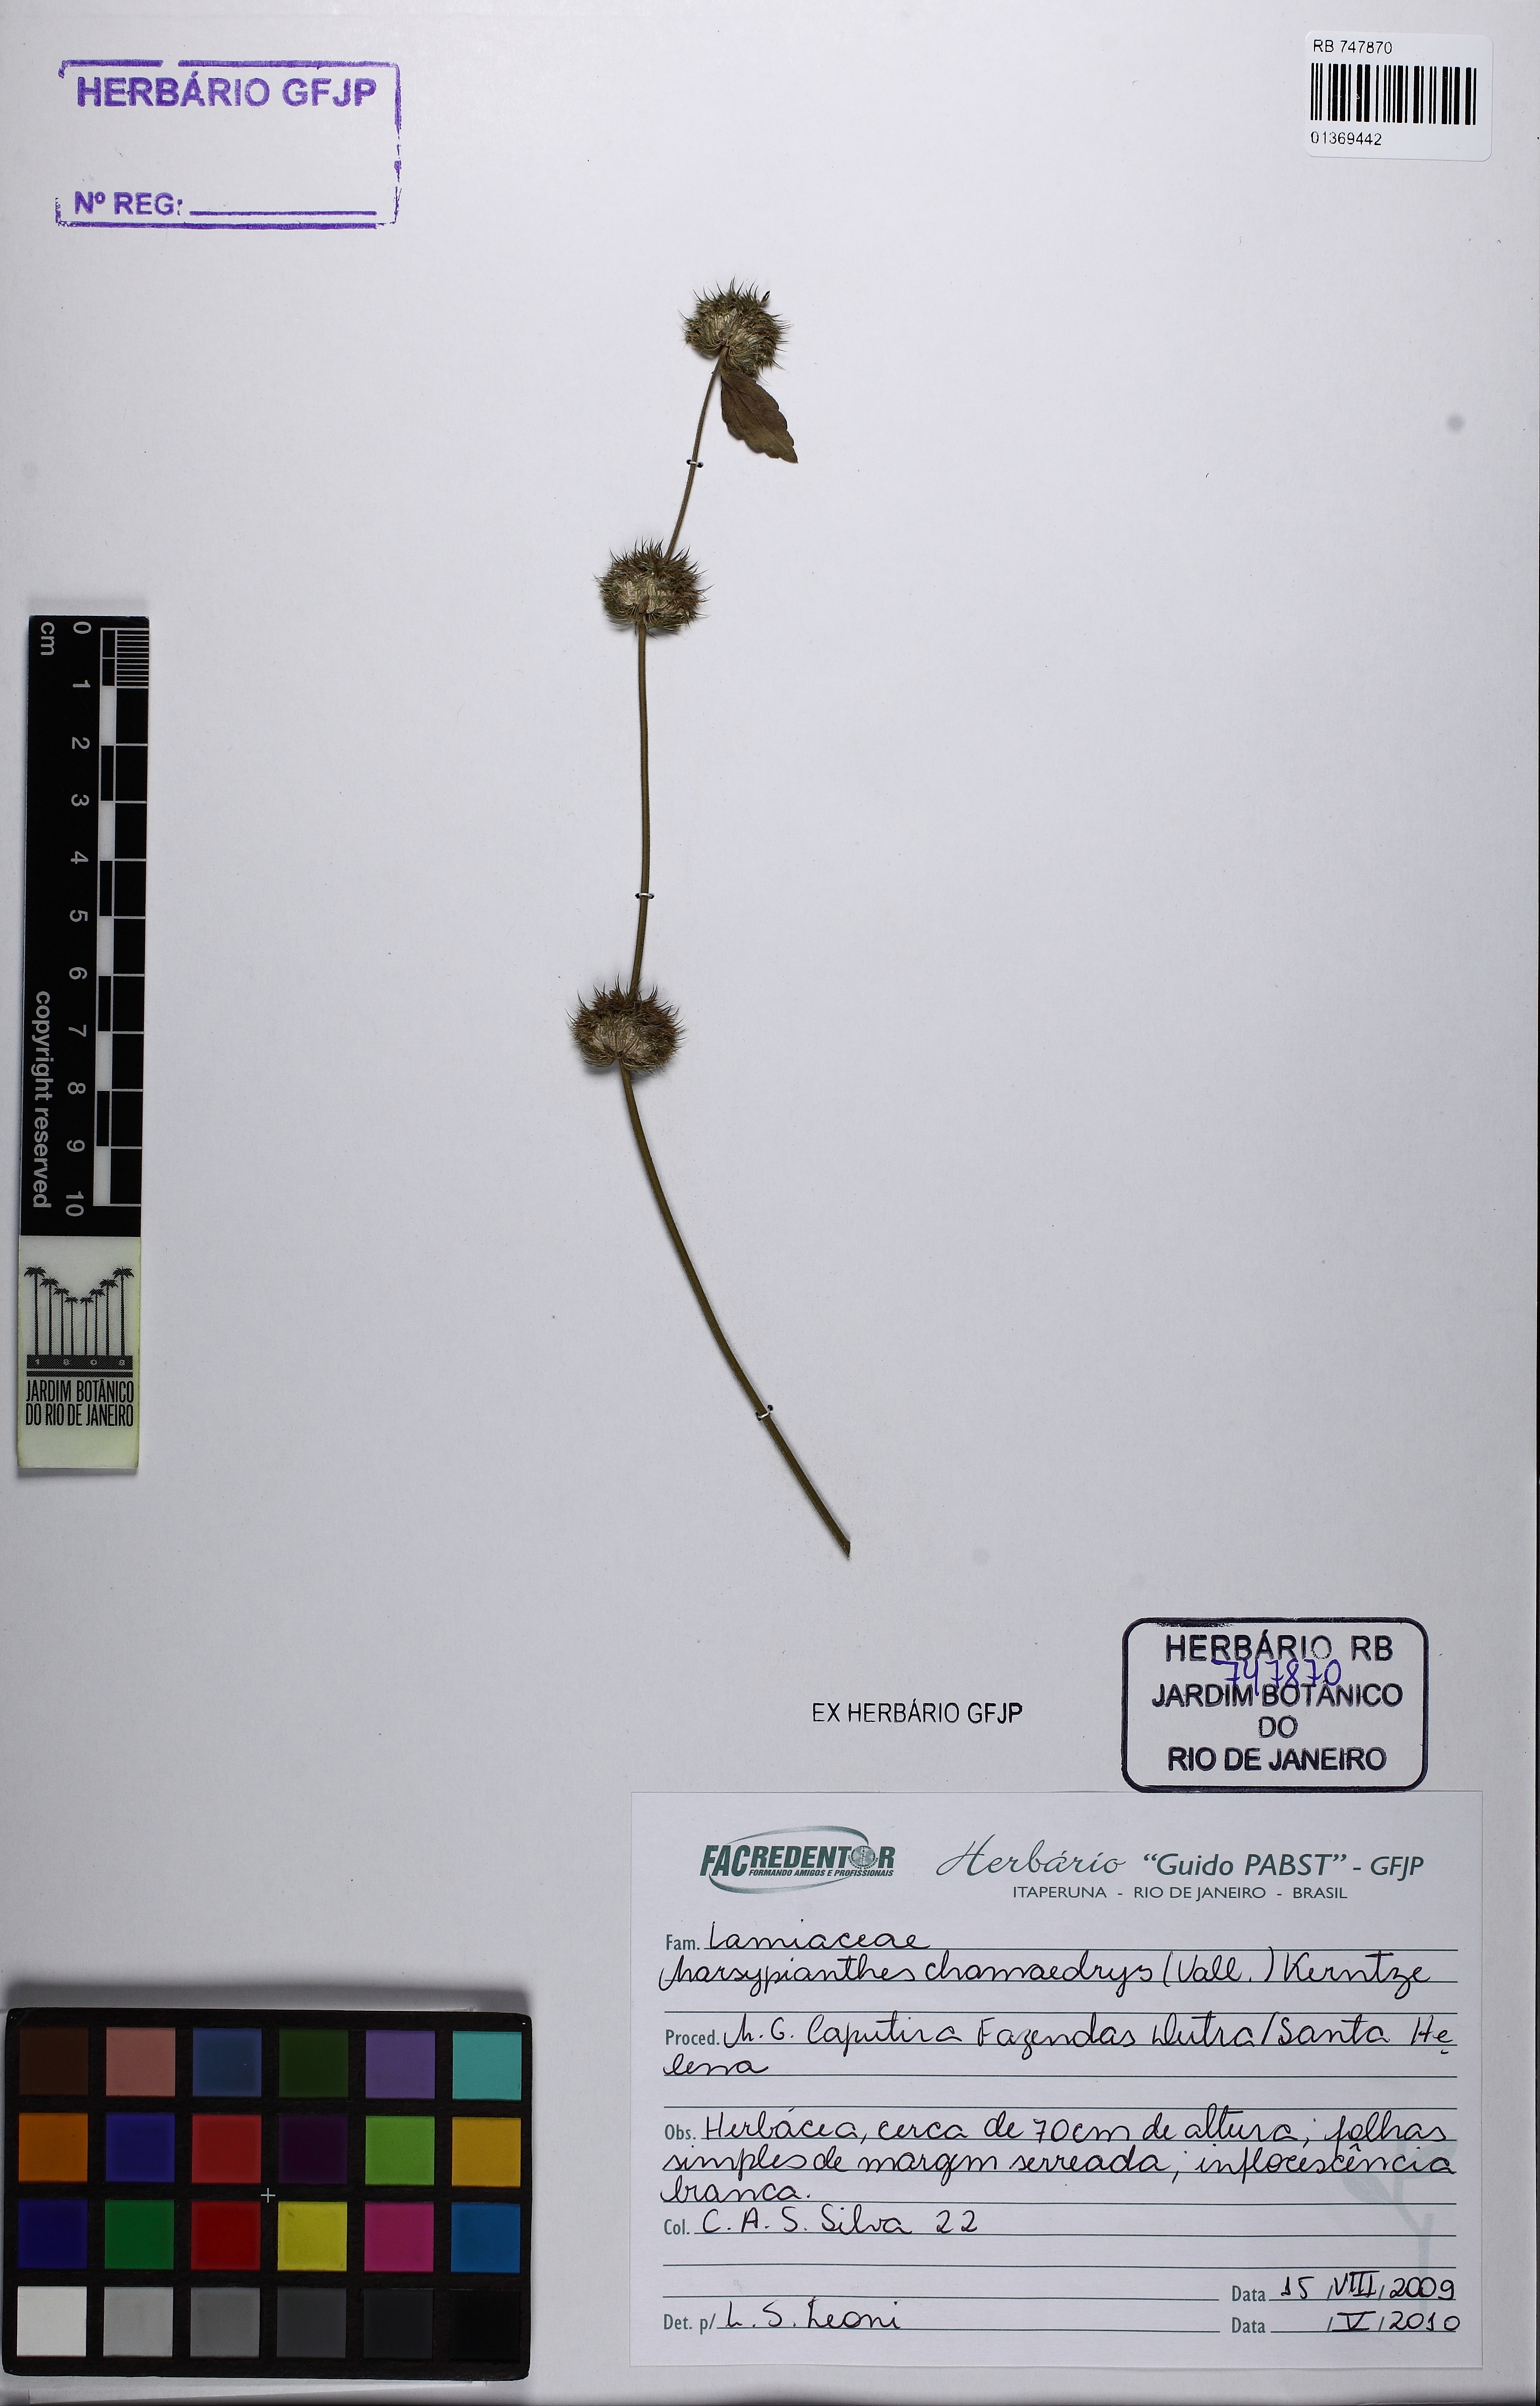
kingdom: Plantae
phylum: Tracheophyta
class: Magnoliopsida
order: Lamiales
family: Lamiaceae
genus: Marsypianthes
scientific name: Marsypianthes chamaedrys
